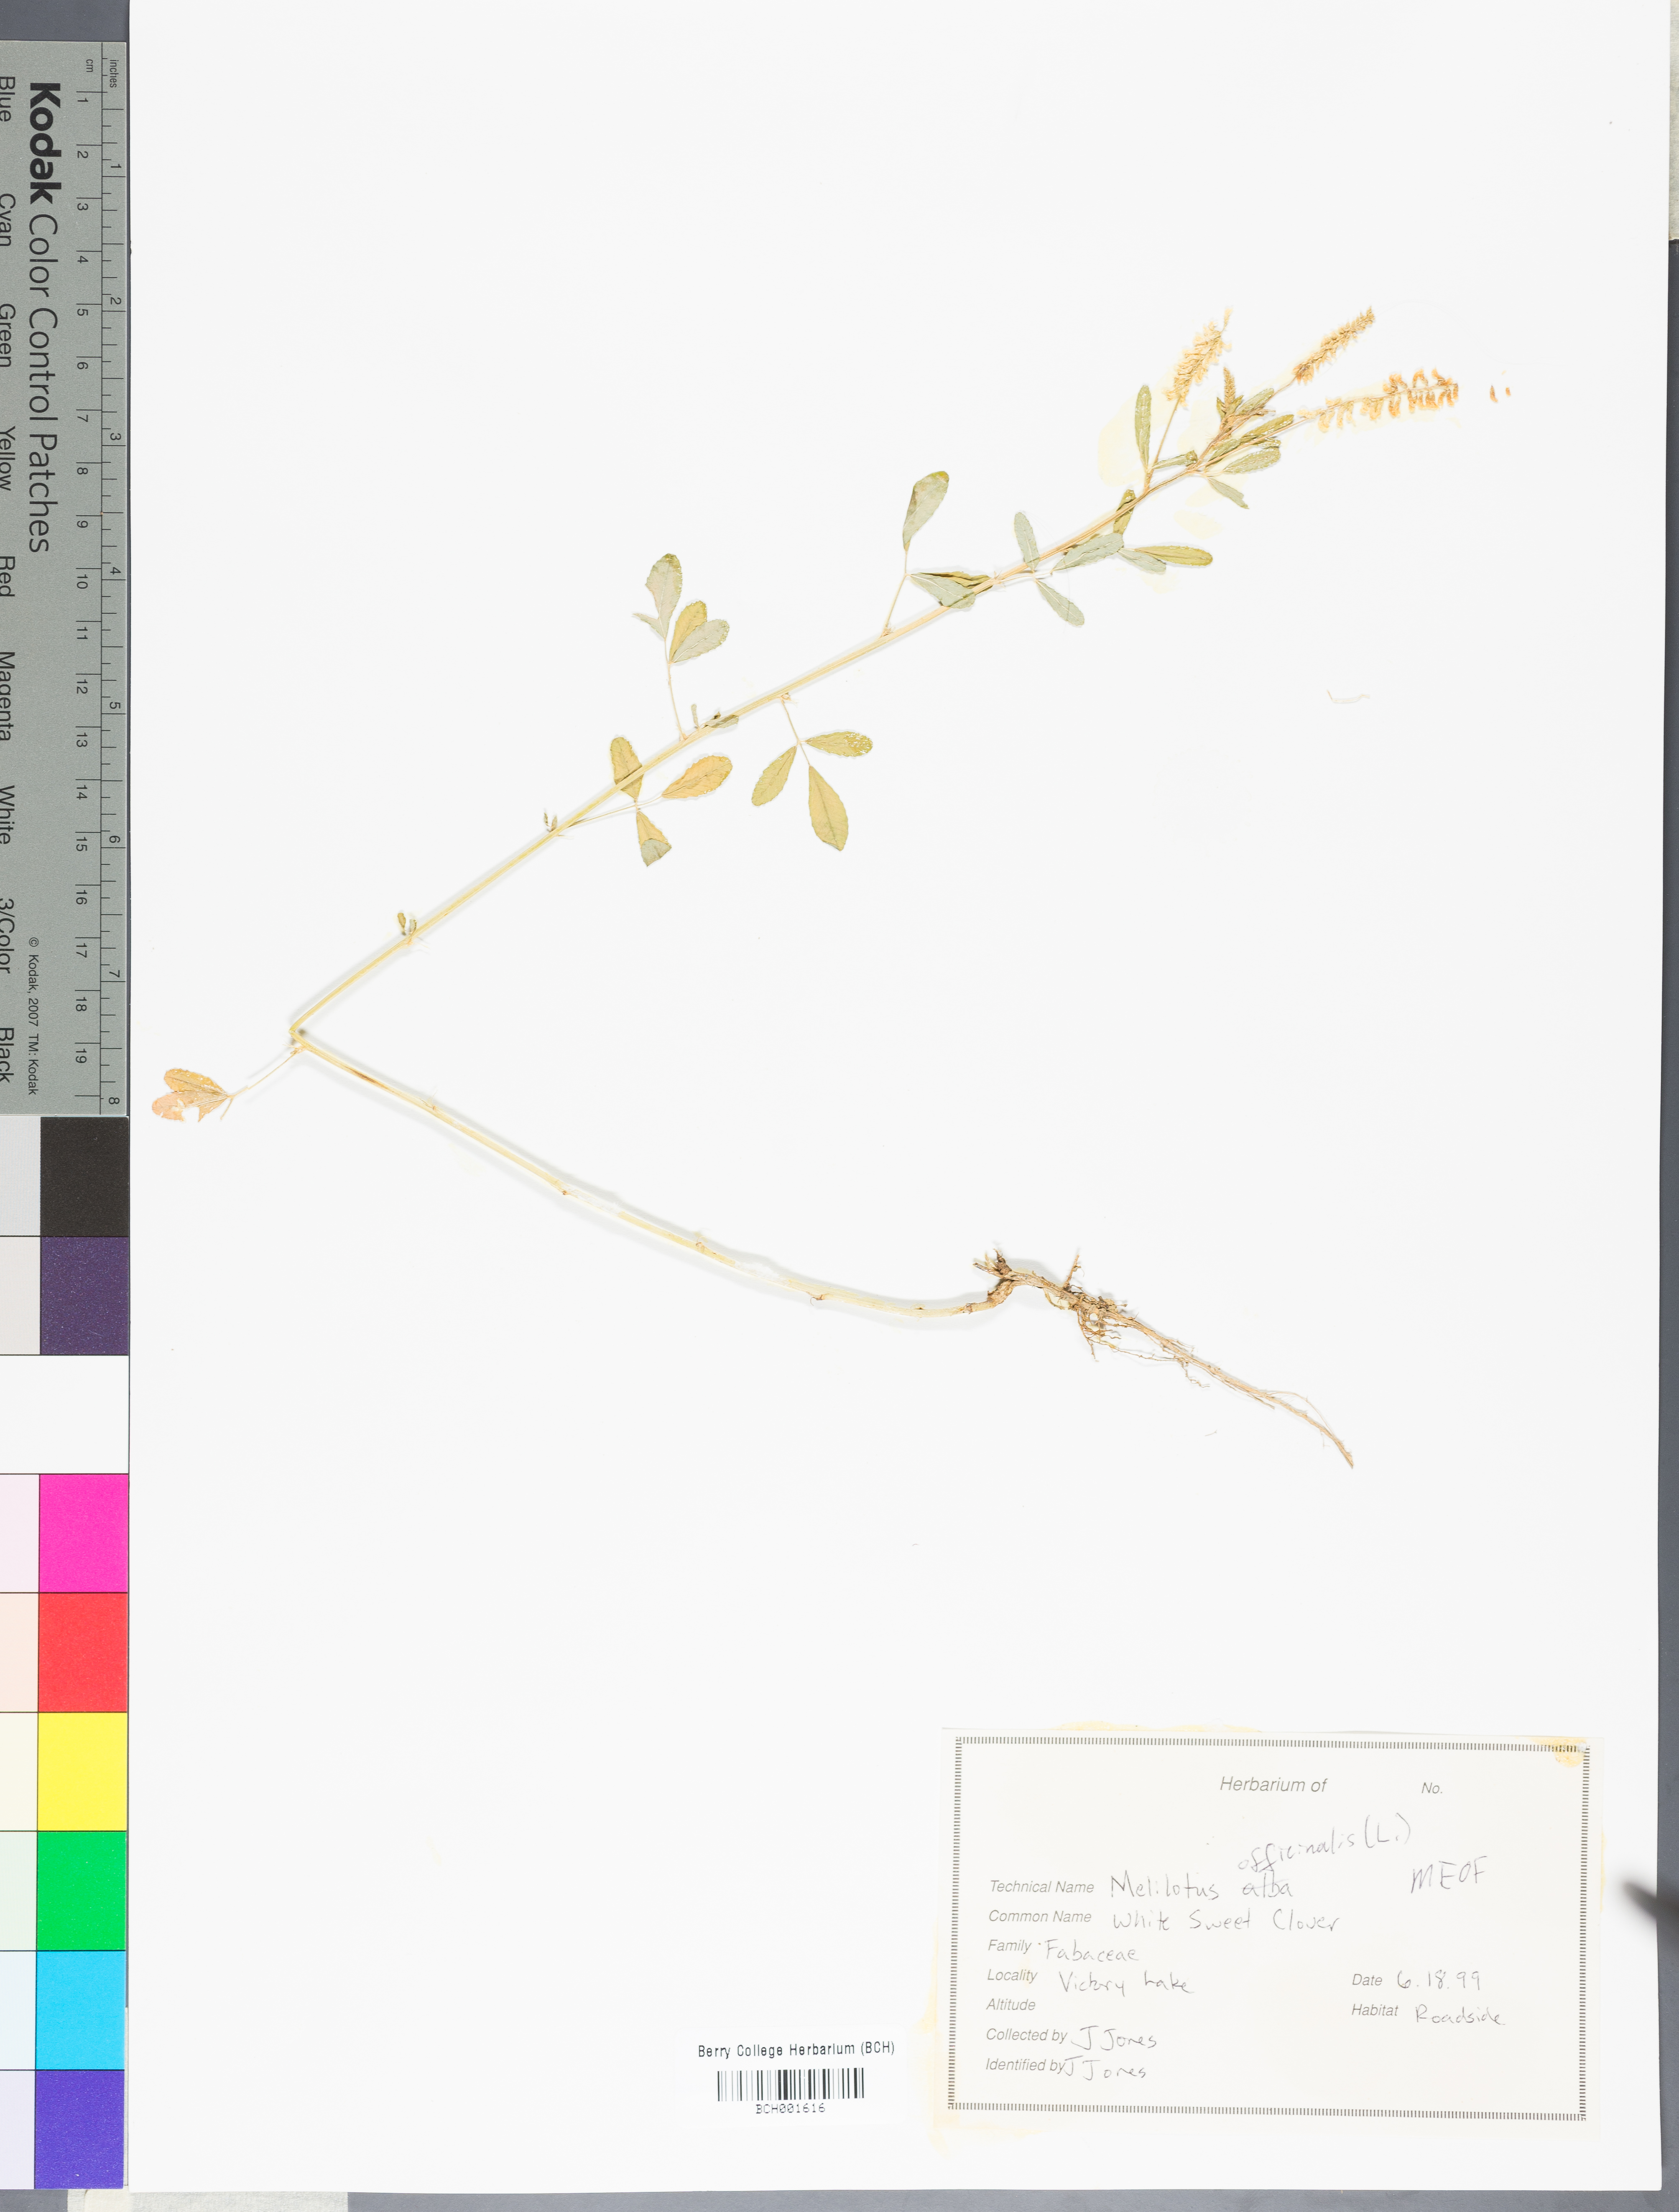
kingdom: Plantae
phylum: Tracheophyta
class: Magnoliopsida
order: Fabales
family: Fabaceae
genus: Melilotus
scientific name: Melilotus officinalis
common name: Sweetclover
